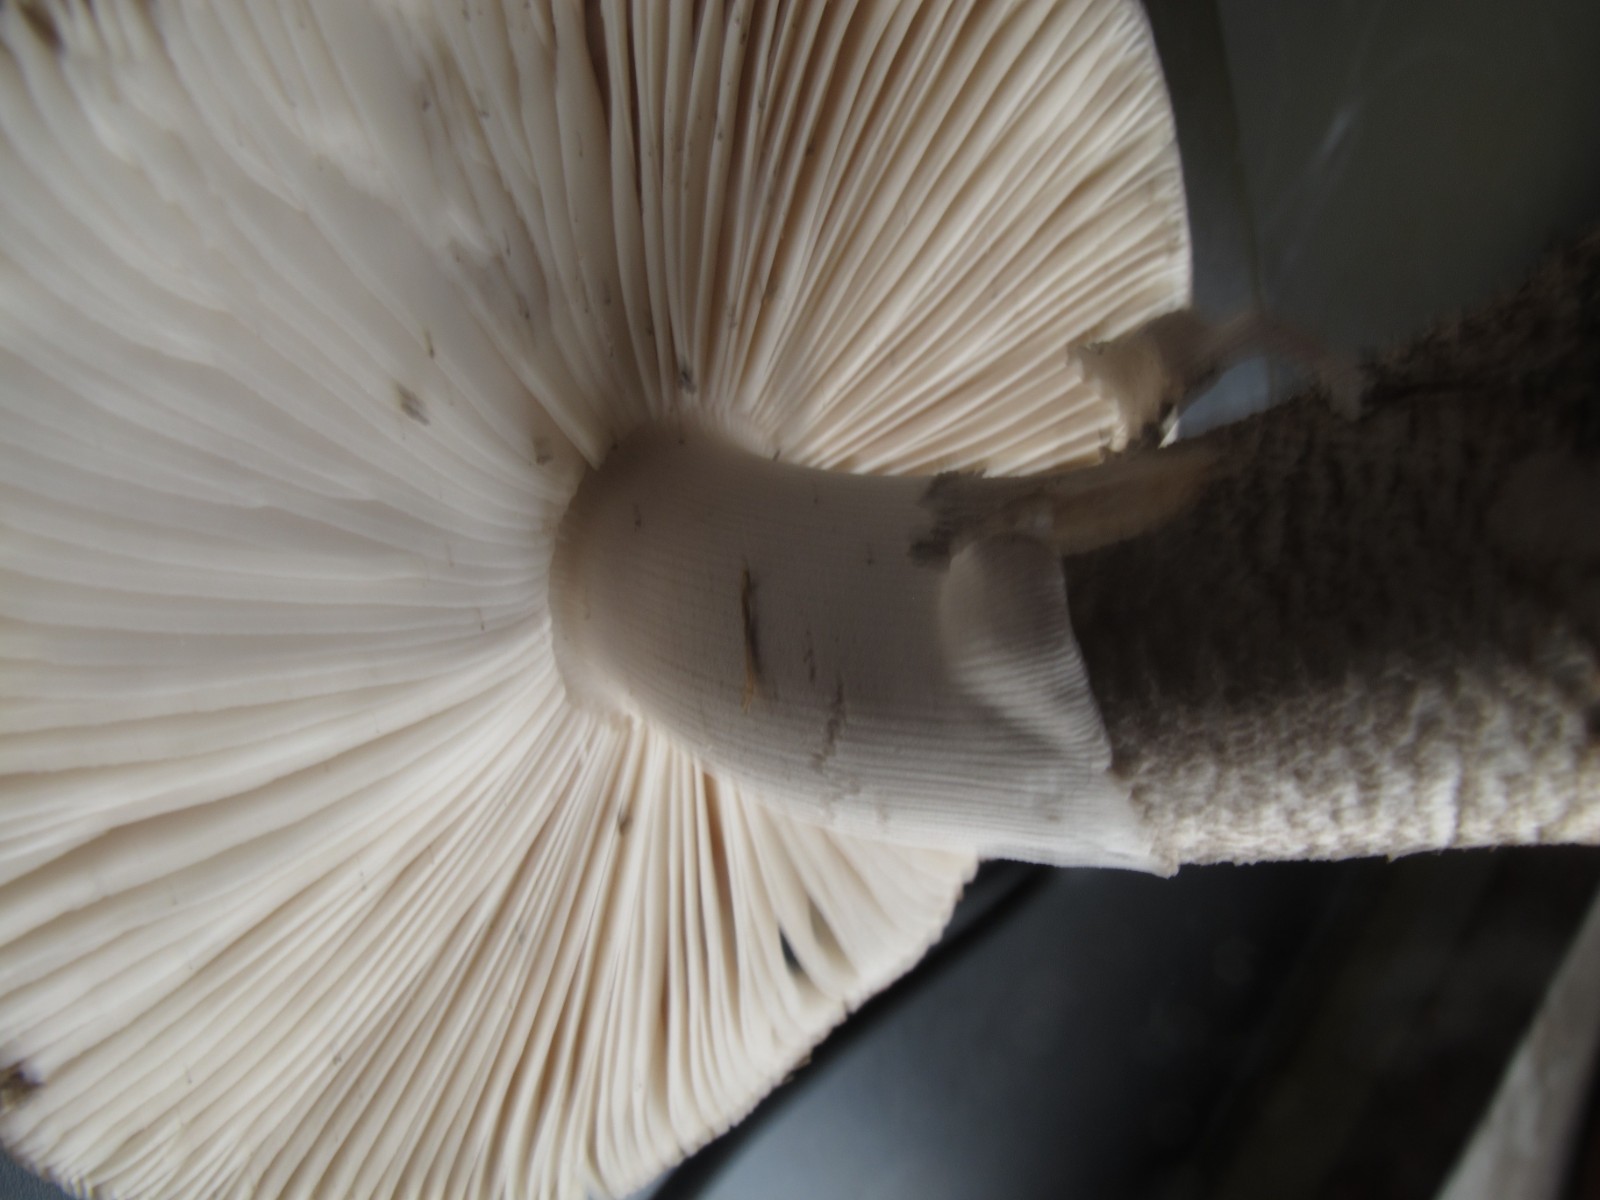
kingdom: Fungi
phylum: Basidiomycota
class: Agaricomycetes
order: Agaricales
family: Amanitaceae
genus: Amanita
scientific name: Amanita
